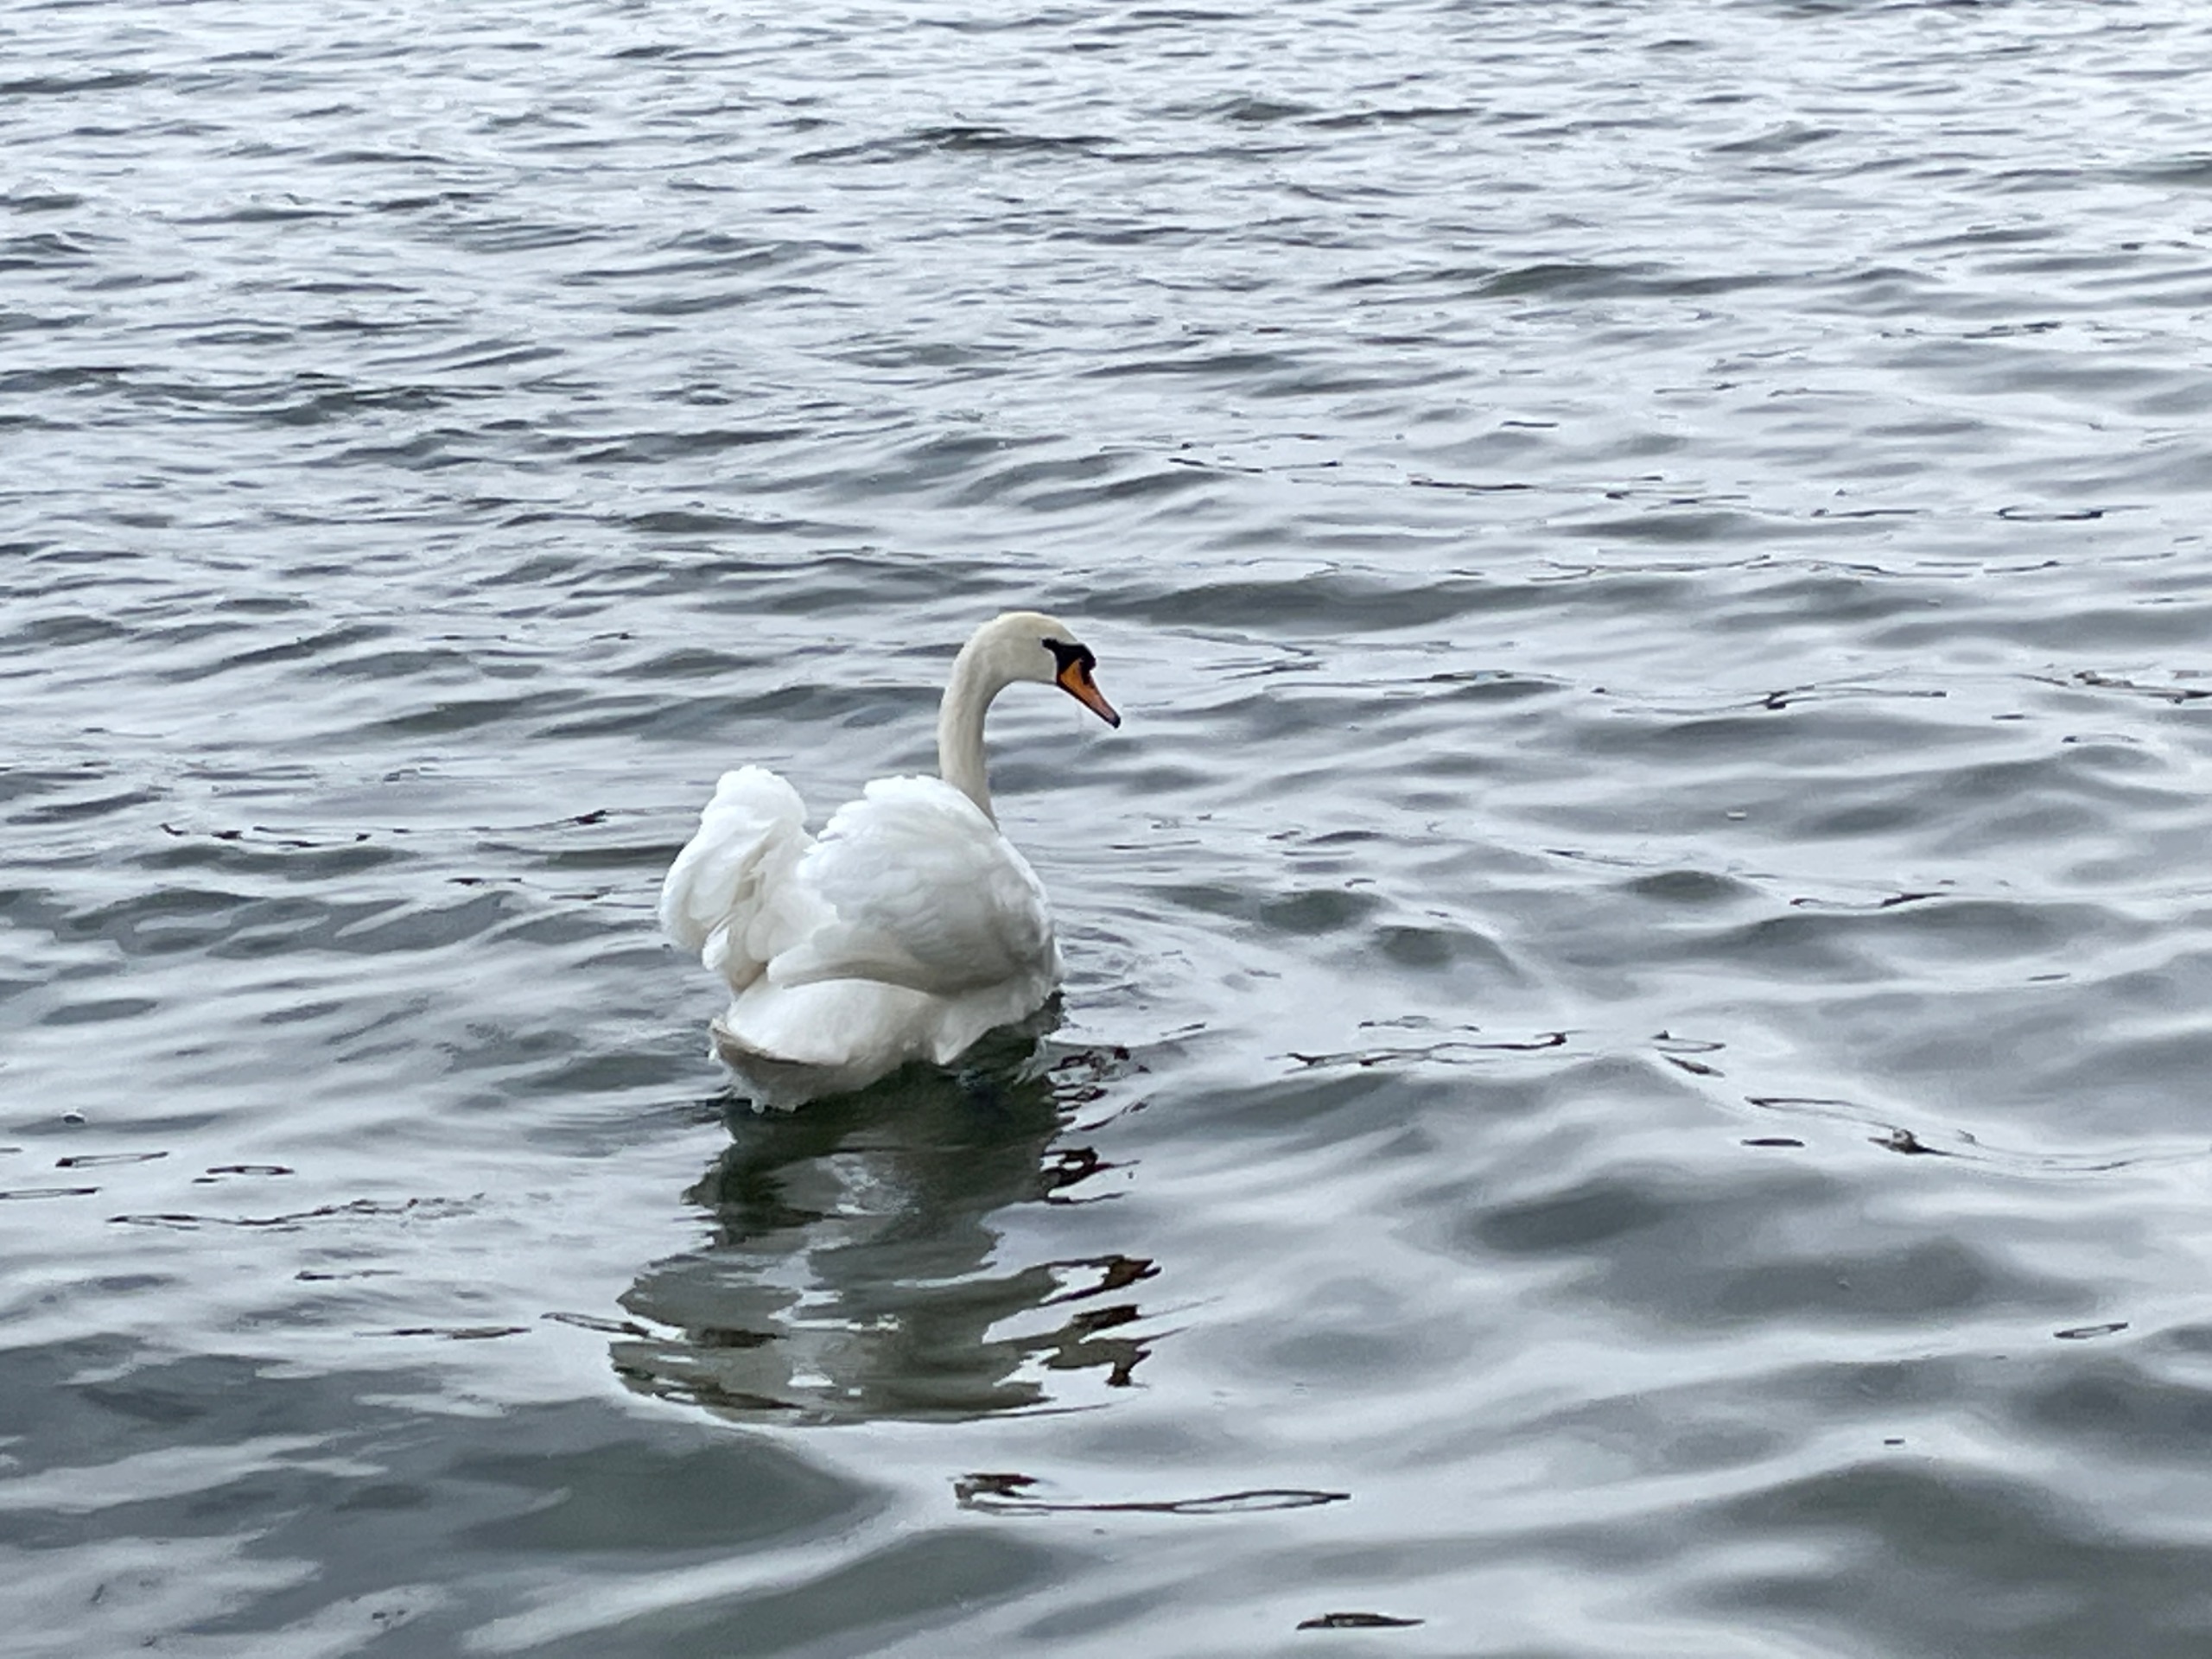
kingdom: Animalia
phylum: Chordata
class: Aves
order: Anseriformes
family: Anatidae
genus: Cygnus
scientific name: Cygnus olor
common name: Knopsvane
